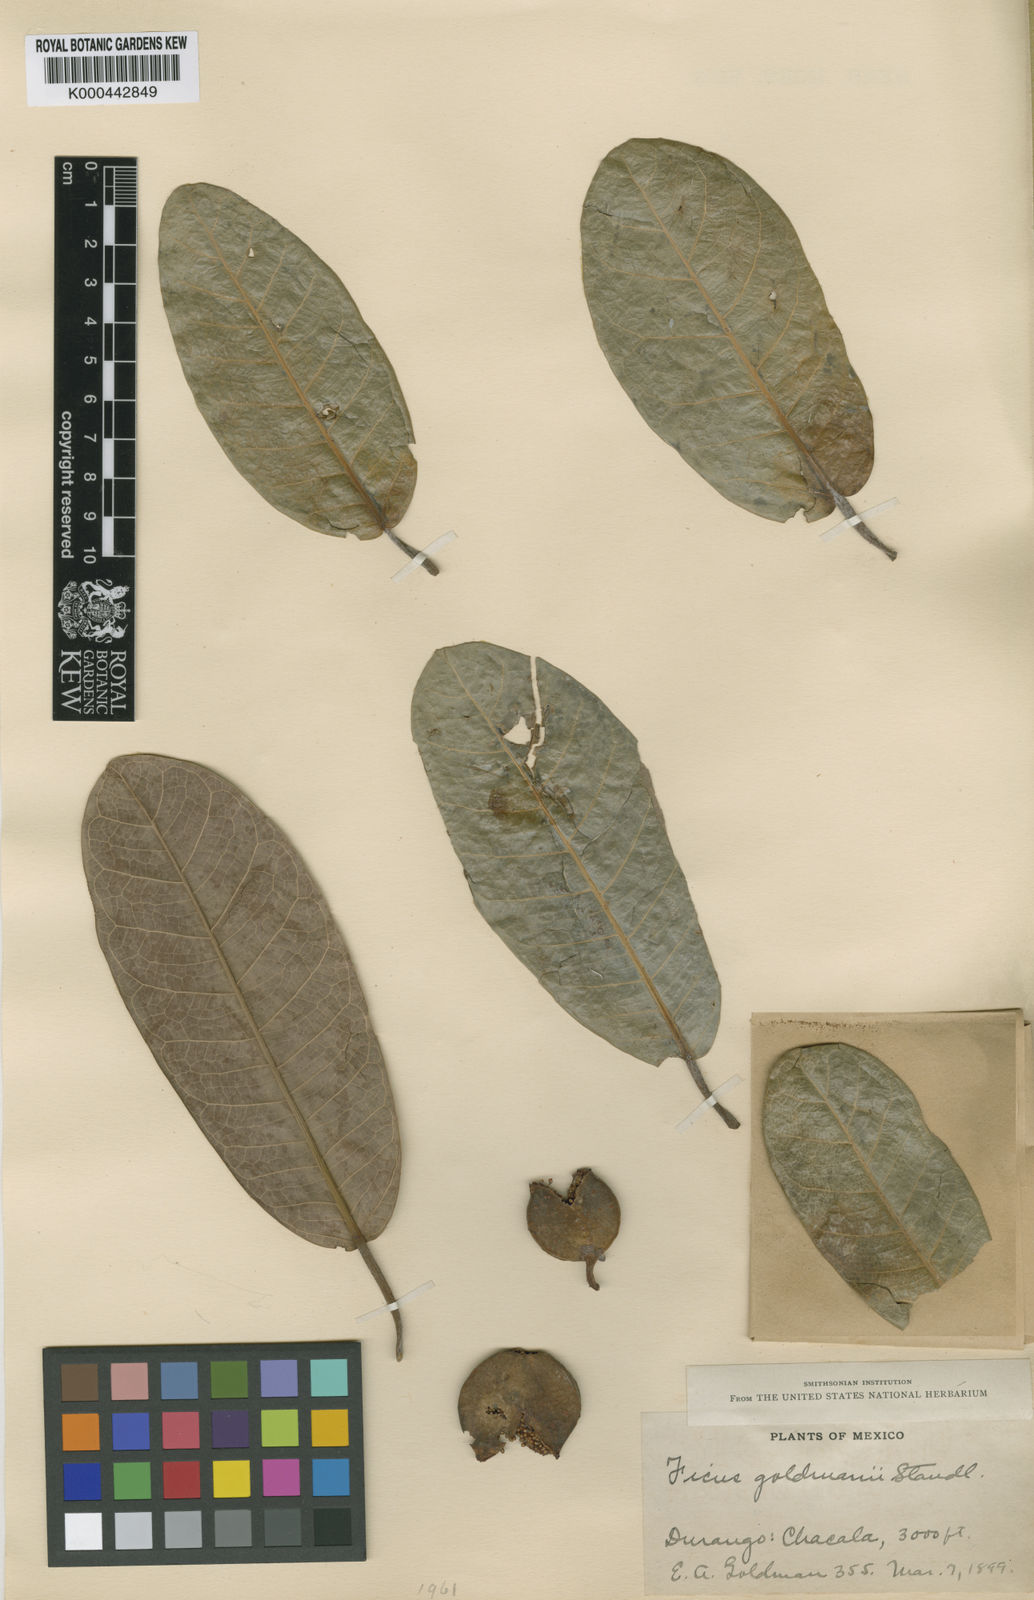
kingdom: Plantae
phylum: Tracheophyta
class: Magnoliopsida
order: Rosales
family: Moraceae
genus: Ficus
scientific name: Ficus goldmanii
